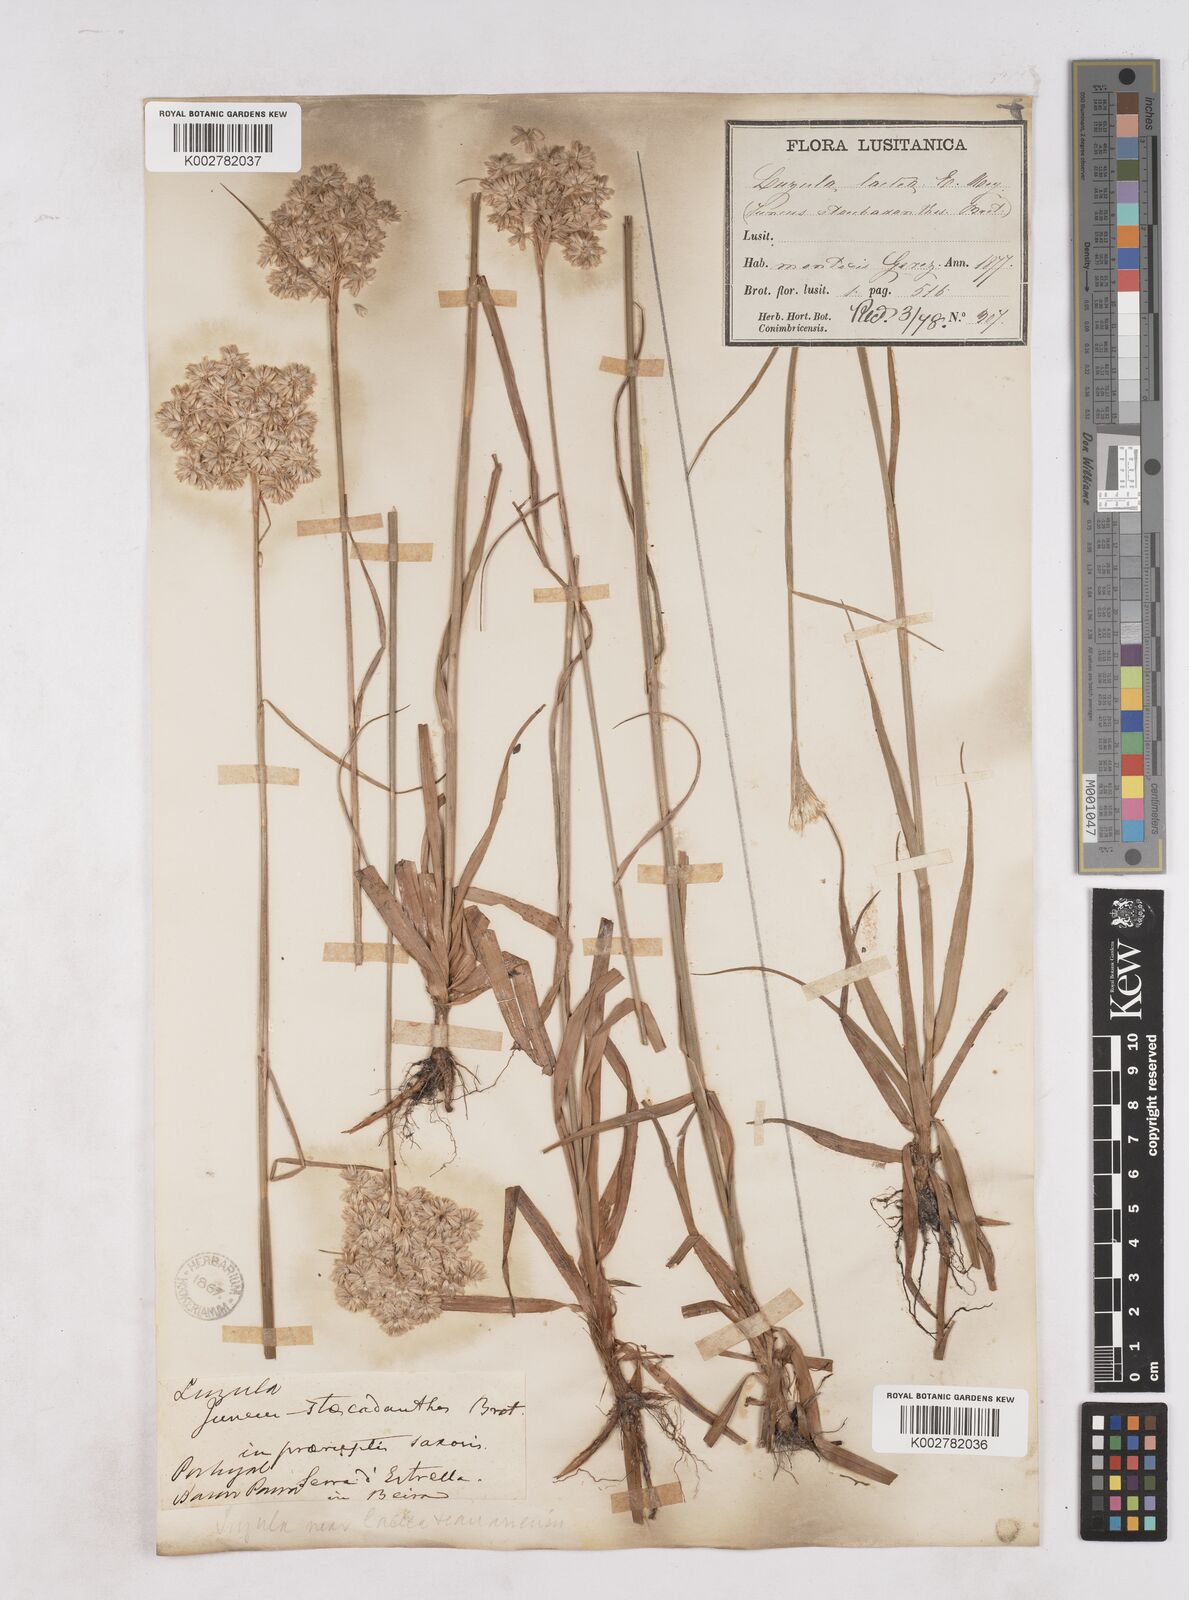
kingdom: Plantae
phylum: Tracheophyta
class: Liliopsida
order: Poales
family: Juncaceae
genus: Luzula
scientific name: Luzula lactea
